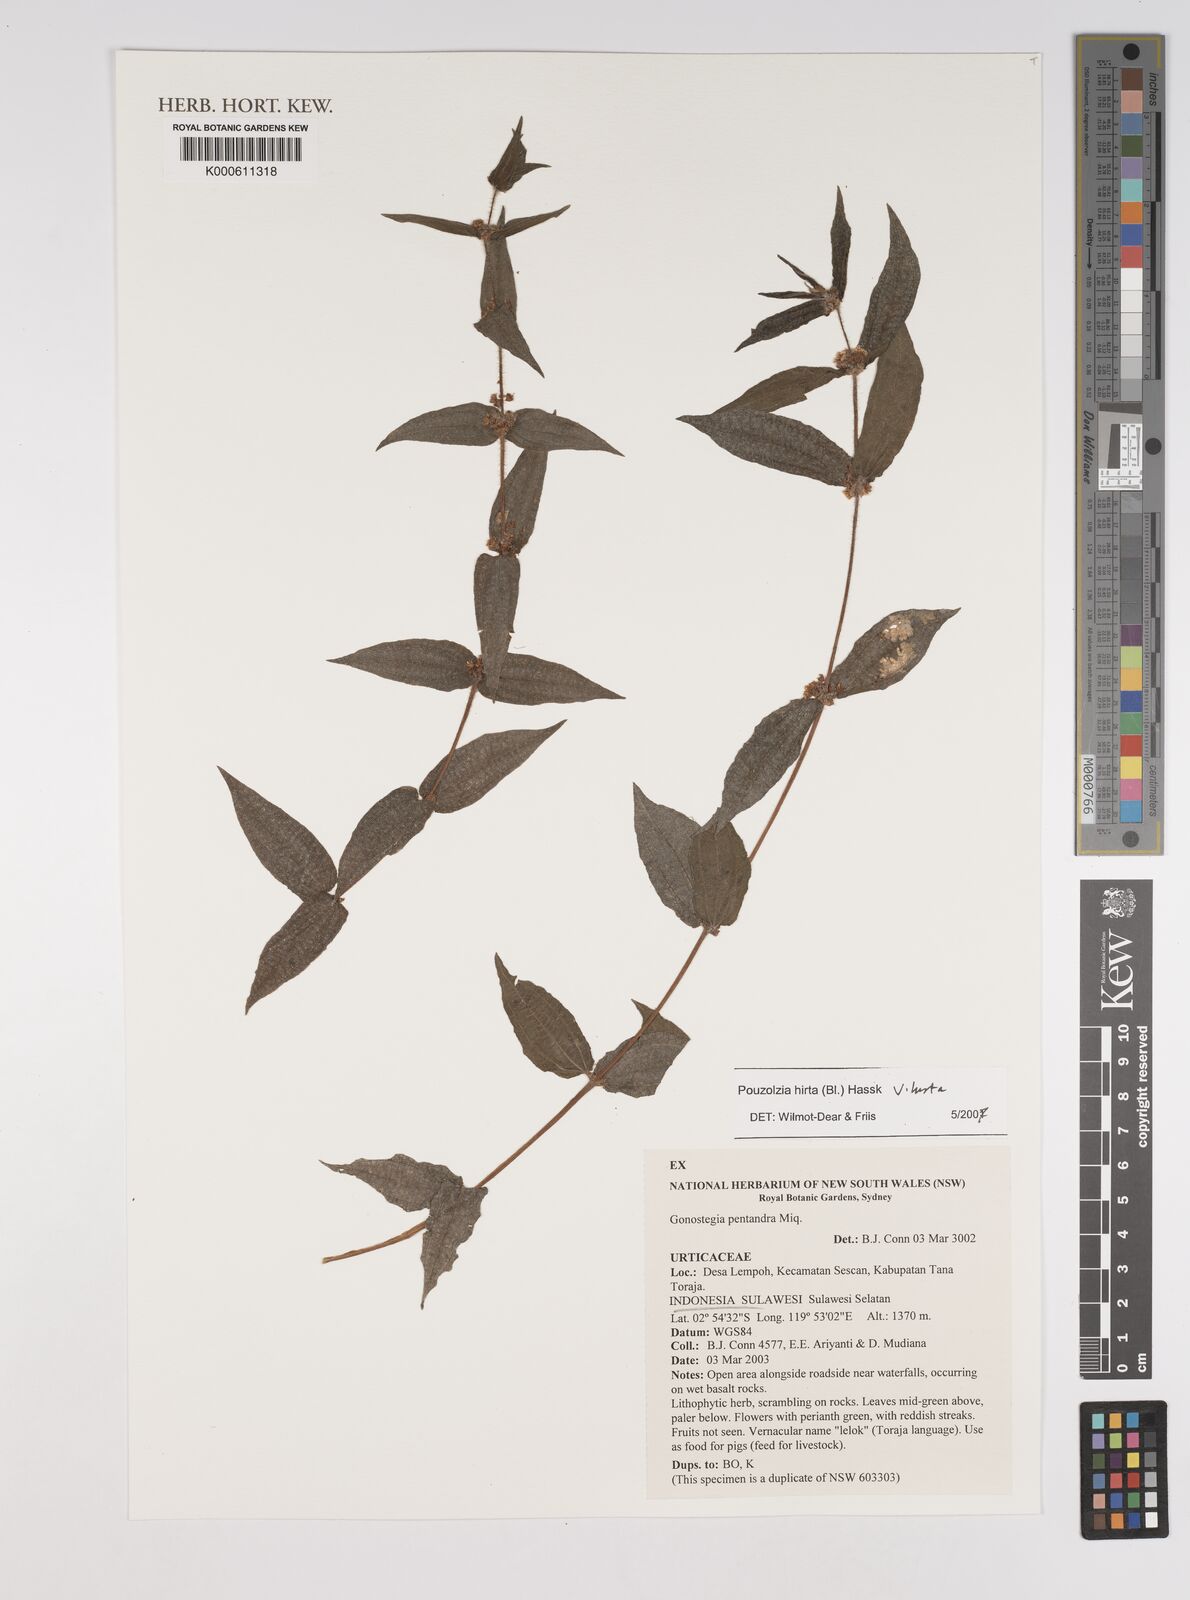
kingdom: Plantae
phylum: Tracheophyta
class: Magnoliopsida
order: Rosales
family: Urticaceae
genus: Gonostegia
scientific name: Gonostegia triandra
